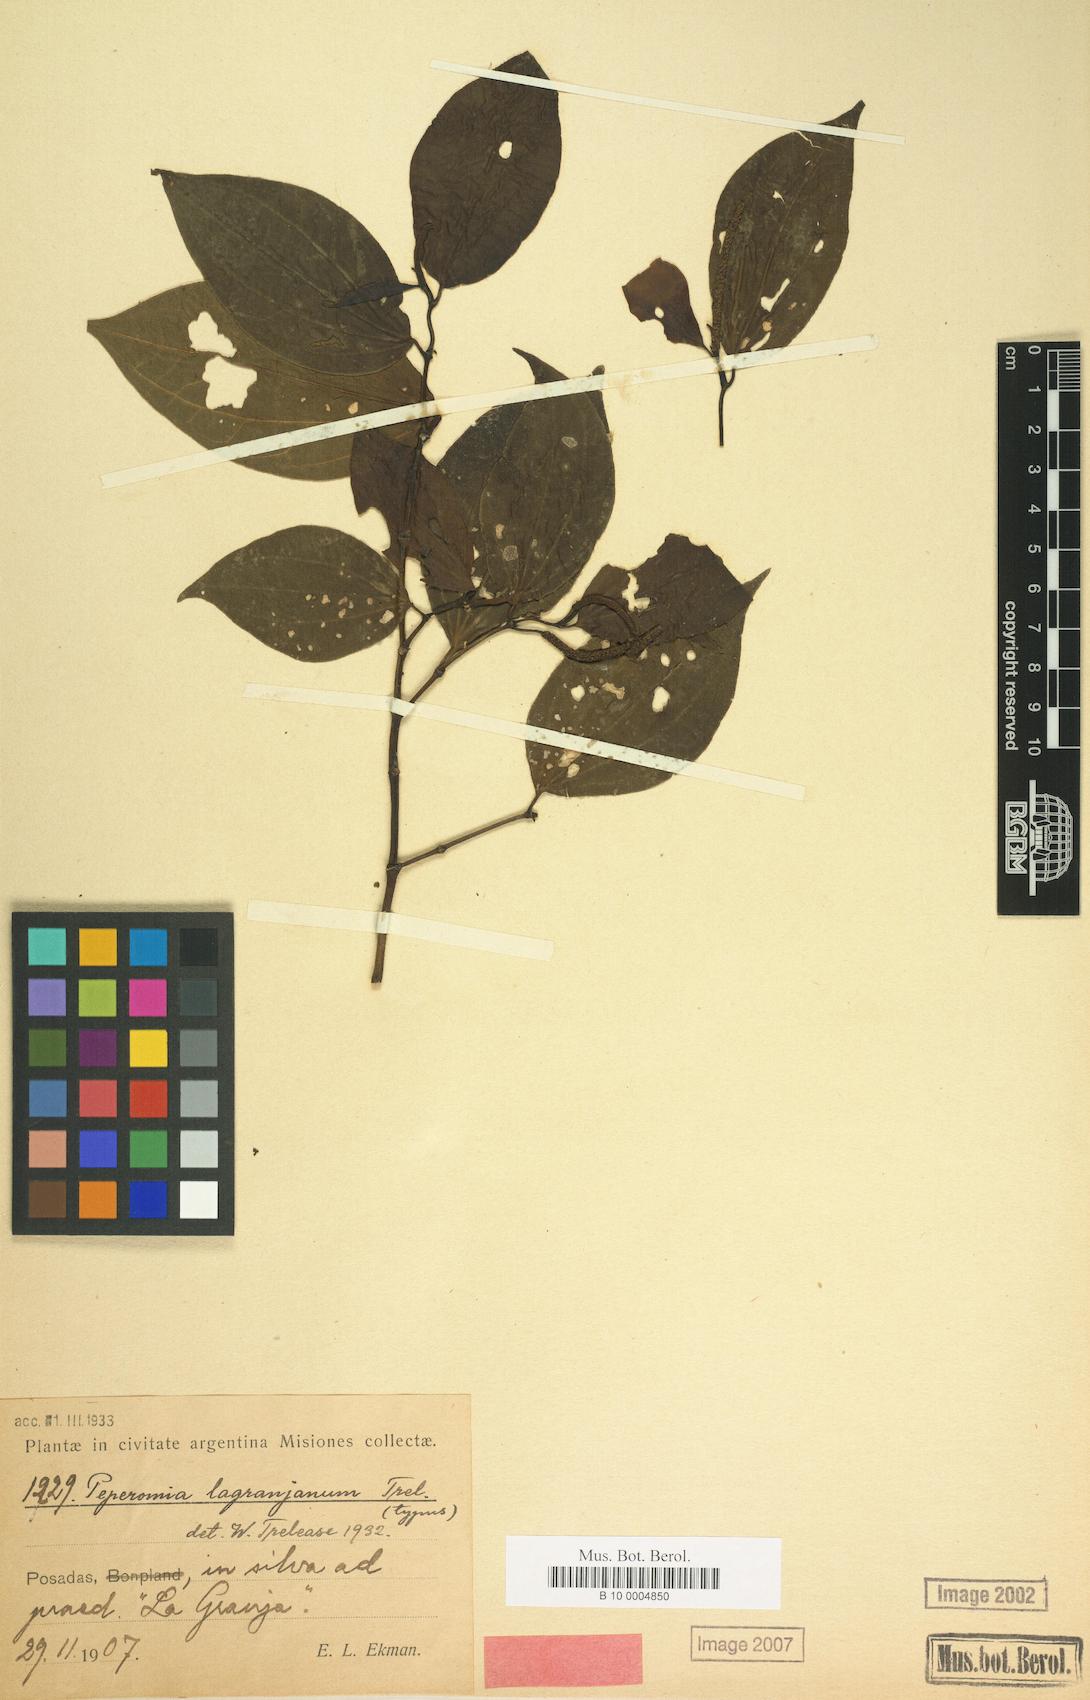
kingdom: Plantae
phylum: Tracheophyta
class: Magnoliopsida
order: Piperales
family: Piperaceae
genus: Peperomia
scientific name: Peperomia
